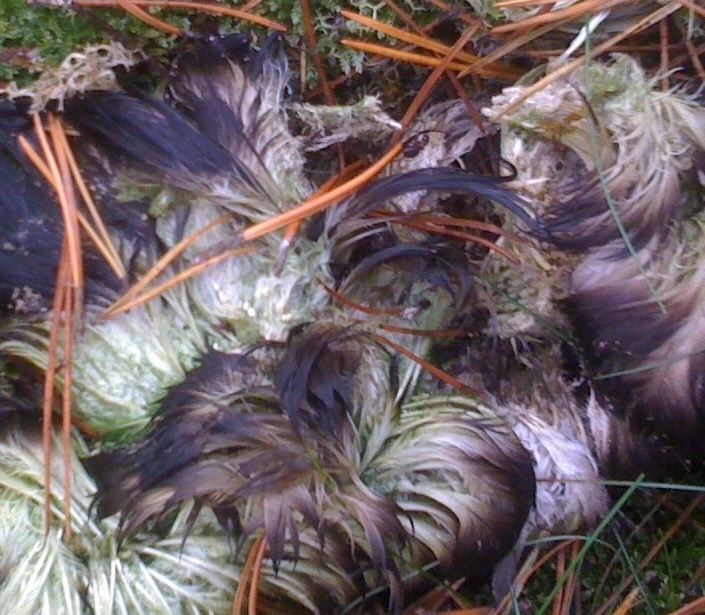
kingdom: Fungi
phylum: Ascomycota
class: Eurotiomycetes
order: Onygenales
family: Onygenaceae
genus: Onygena
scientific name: Onygena corvina
